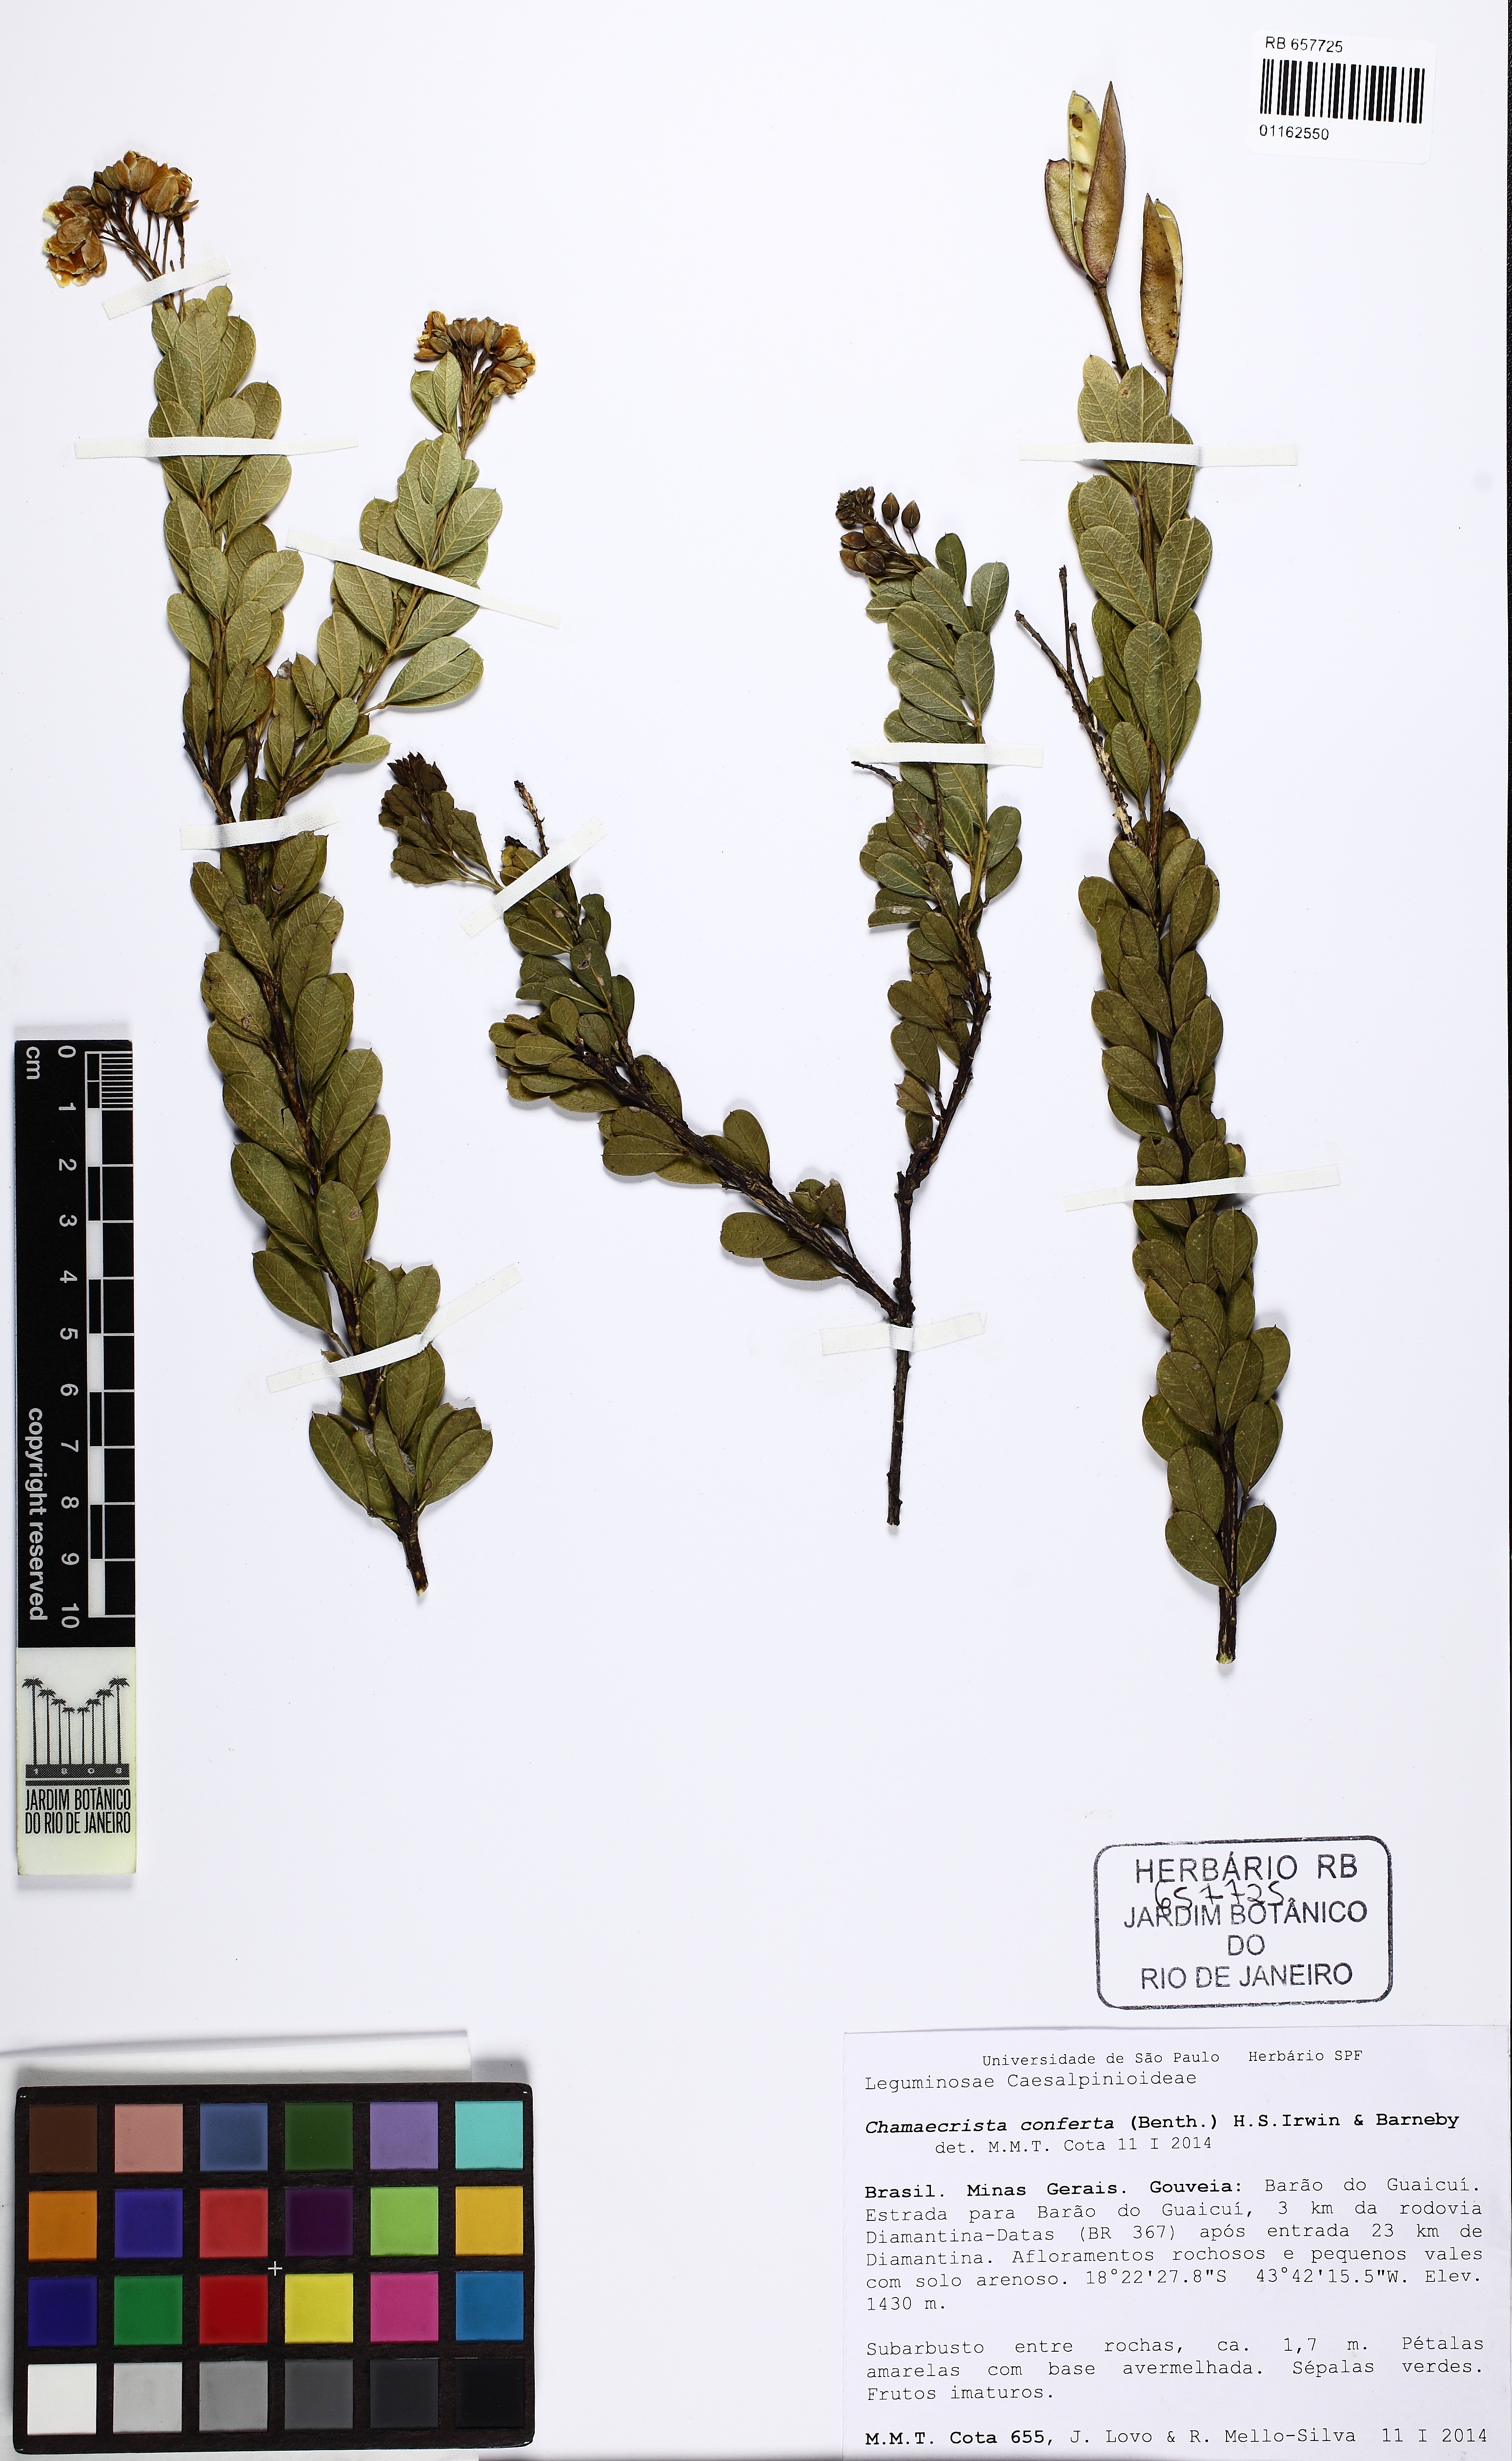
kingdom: Plantae
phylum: Tracheophyta
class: Magnoliopsida
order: Fabales
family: Fabaceae
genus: Chamaecrista
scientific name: Chamaecrista conferta
